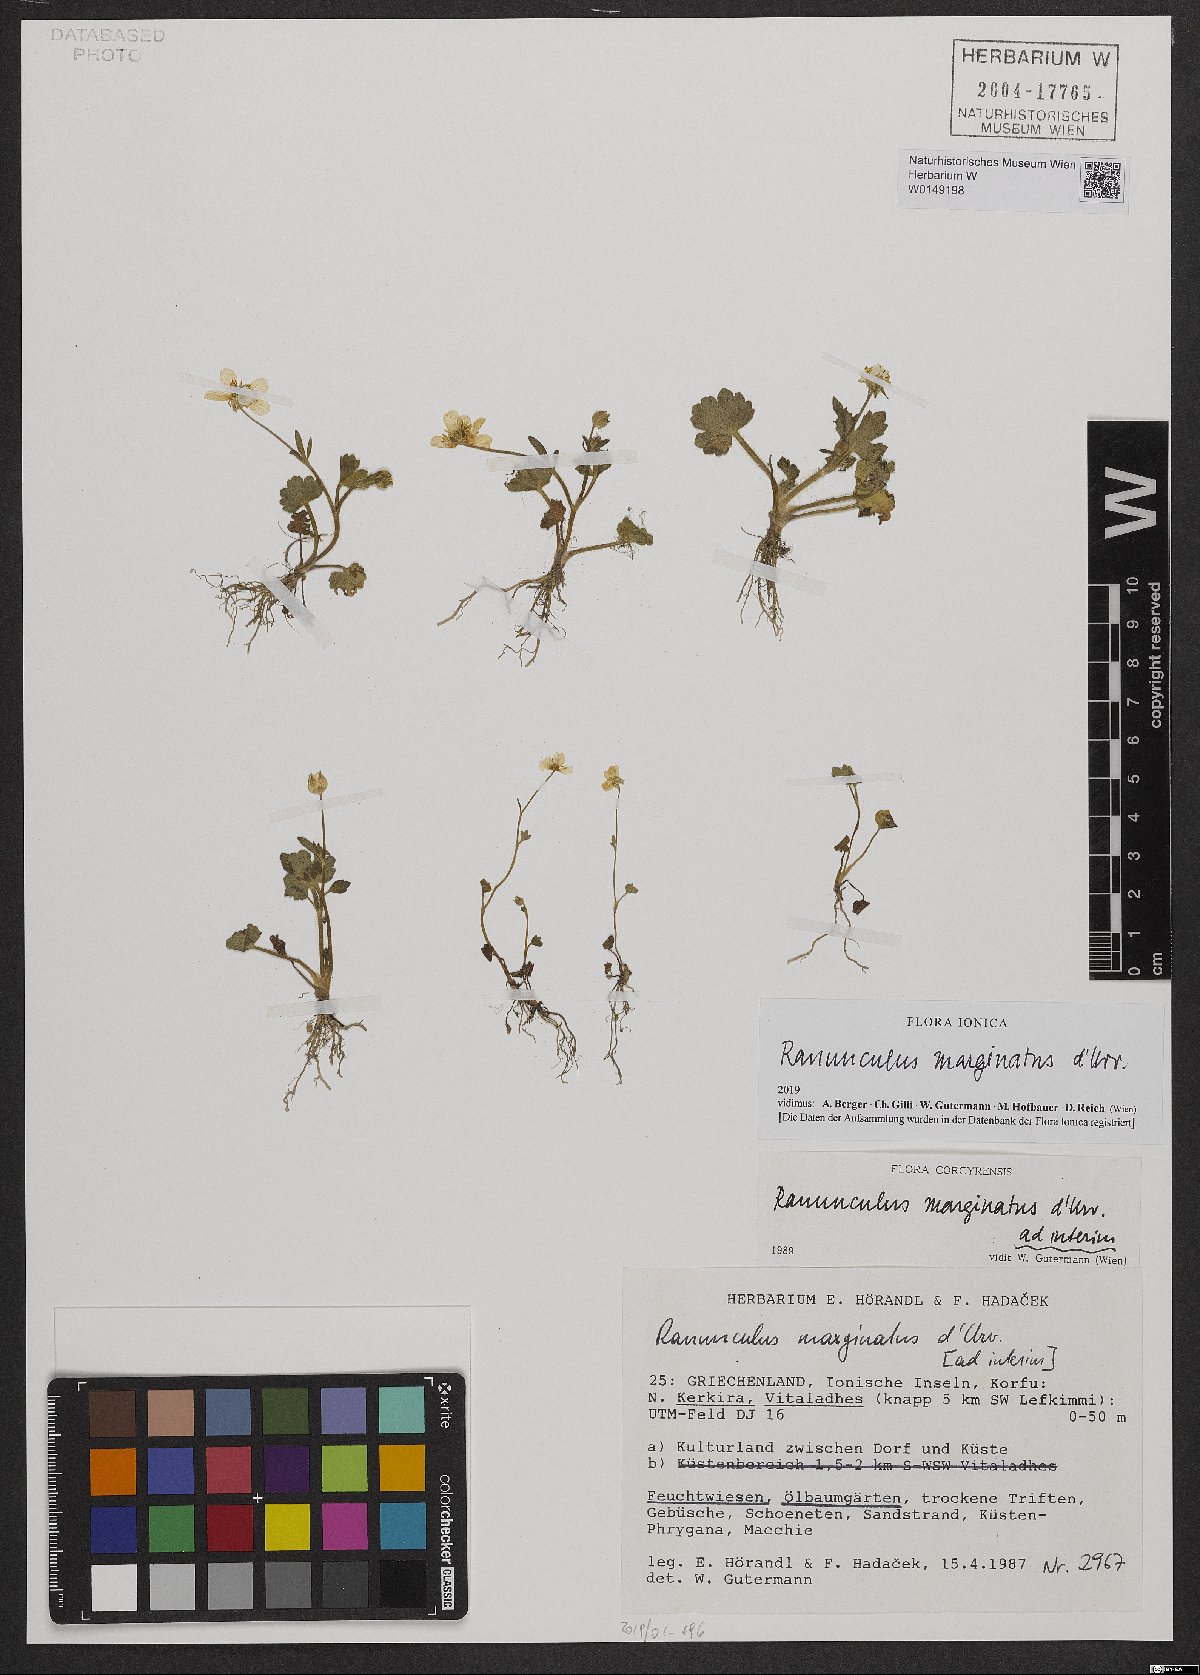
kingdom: Plantae
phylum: Tracheophyta
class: Magnoliopsida
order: Ranunculales
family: Ranunculaceae
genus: Ranunculus
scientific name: Ranunculus marginatus
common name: St. martin's buttercup
